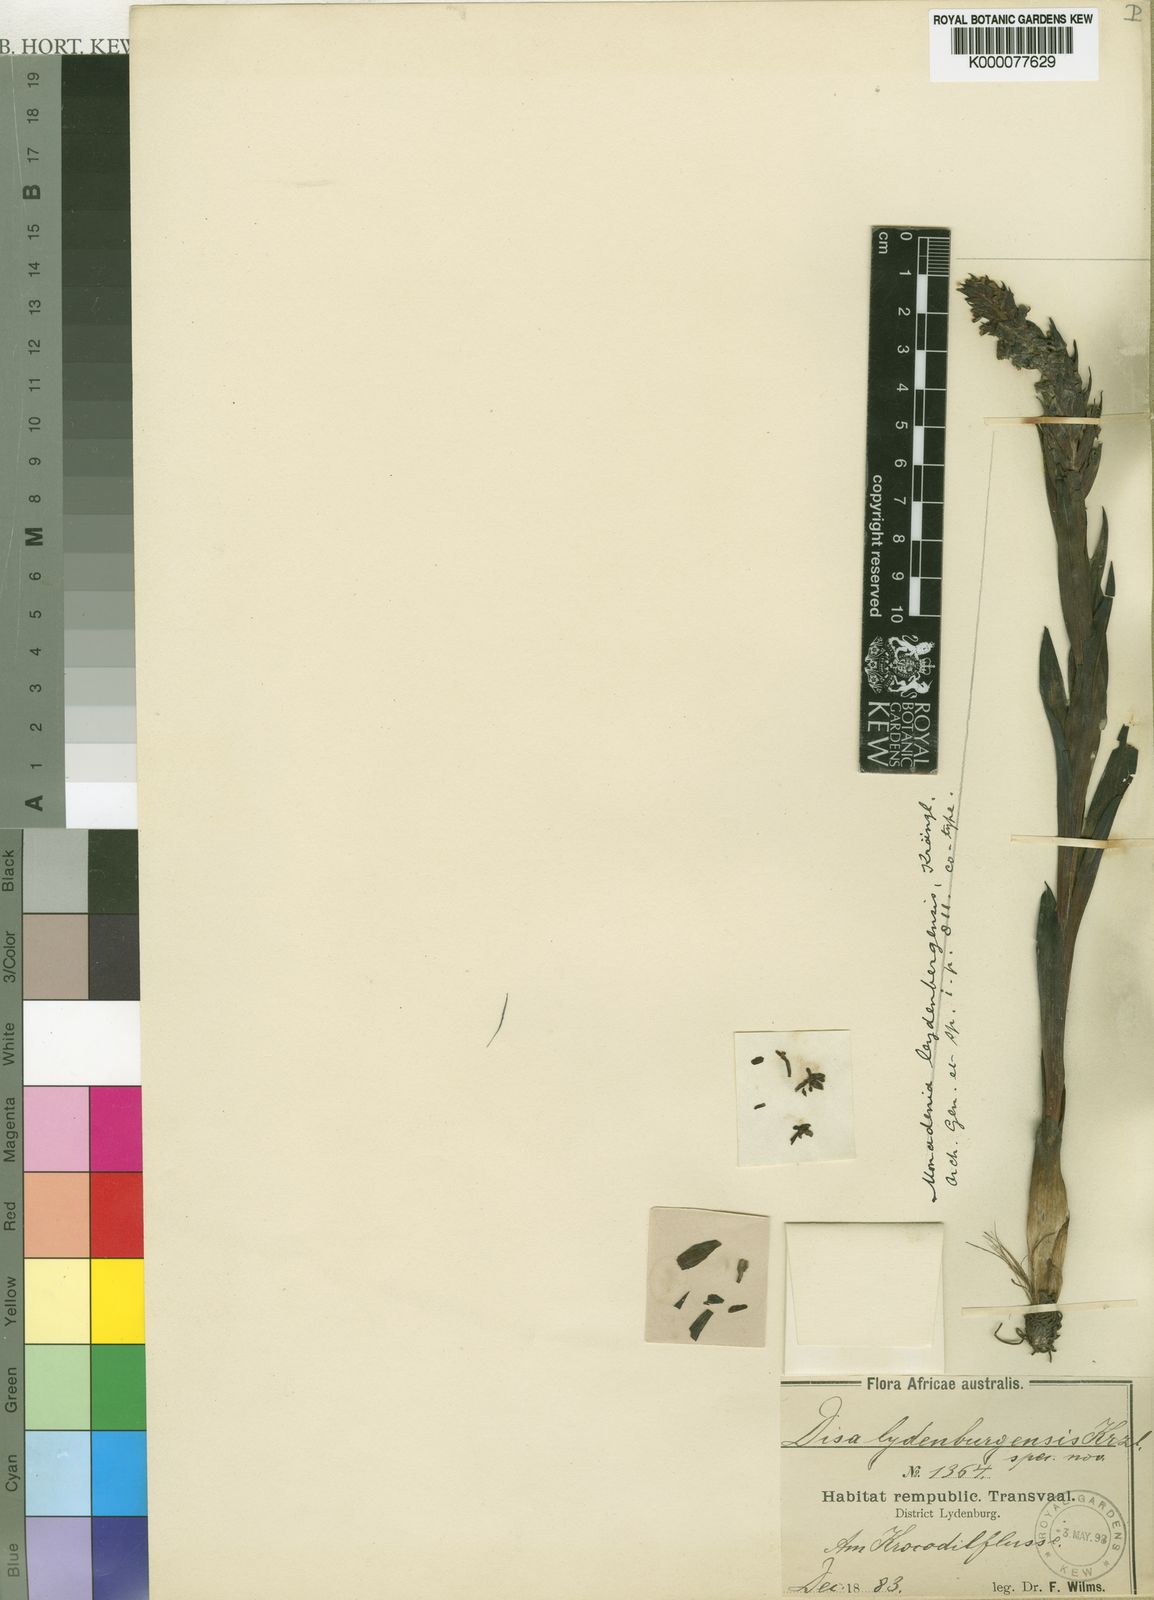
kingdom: Plantae
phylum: Tracheophyta
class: Liliopsida
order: Asparagales
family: Orchidaceae
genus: Disa
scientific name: Disa stachyoides
